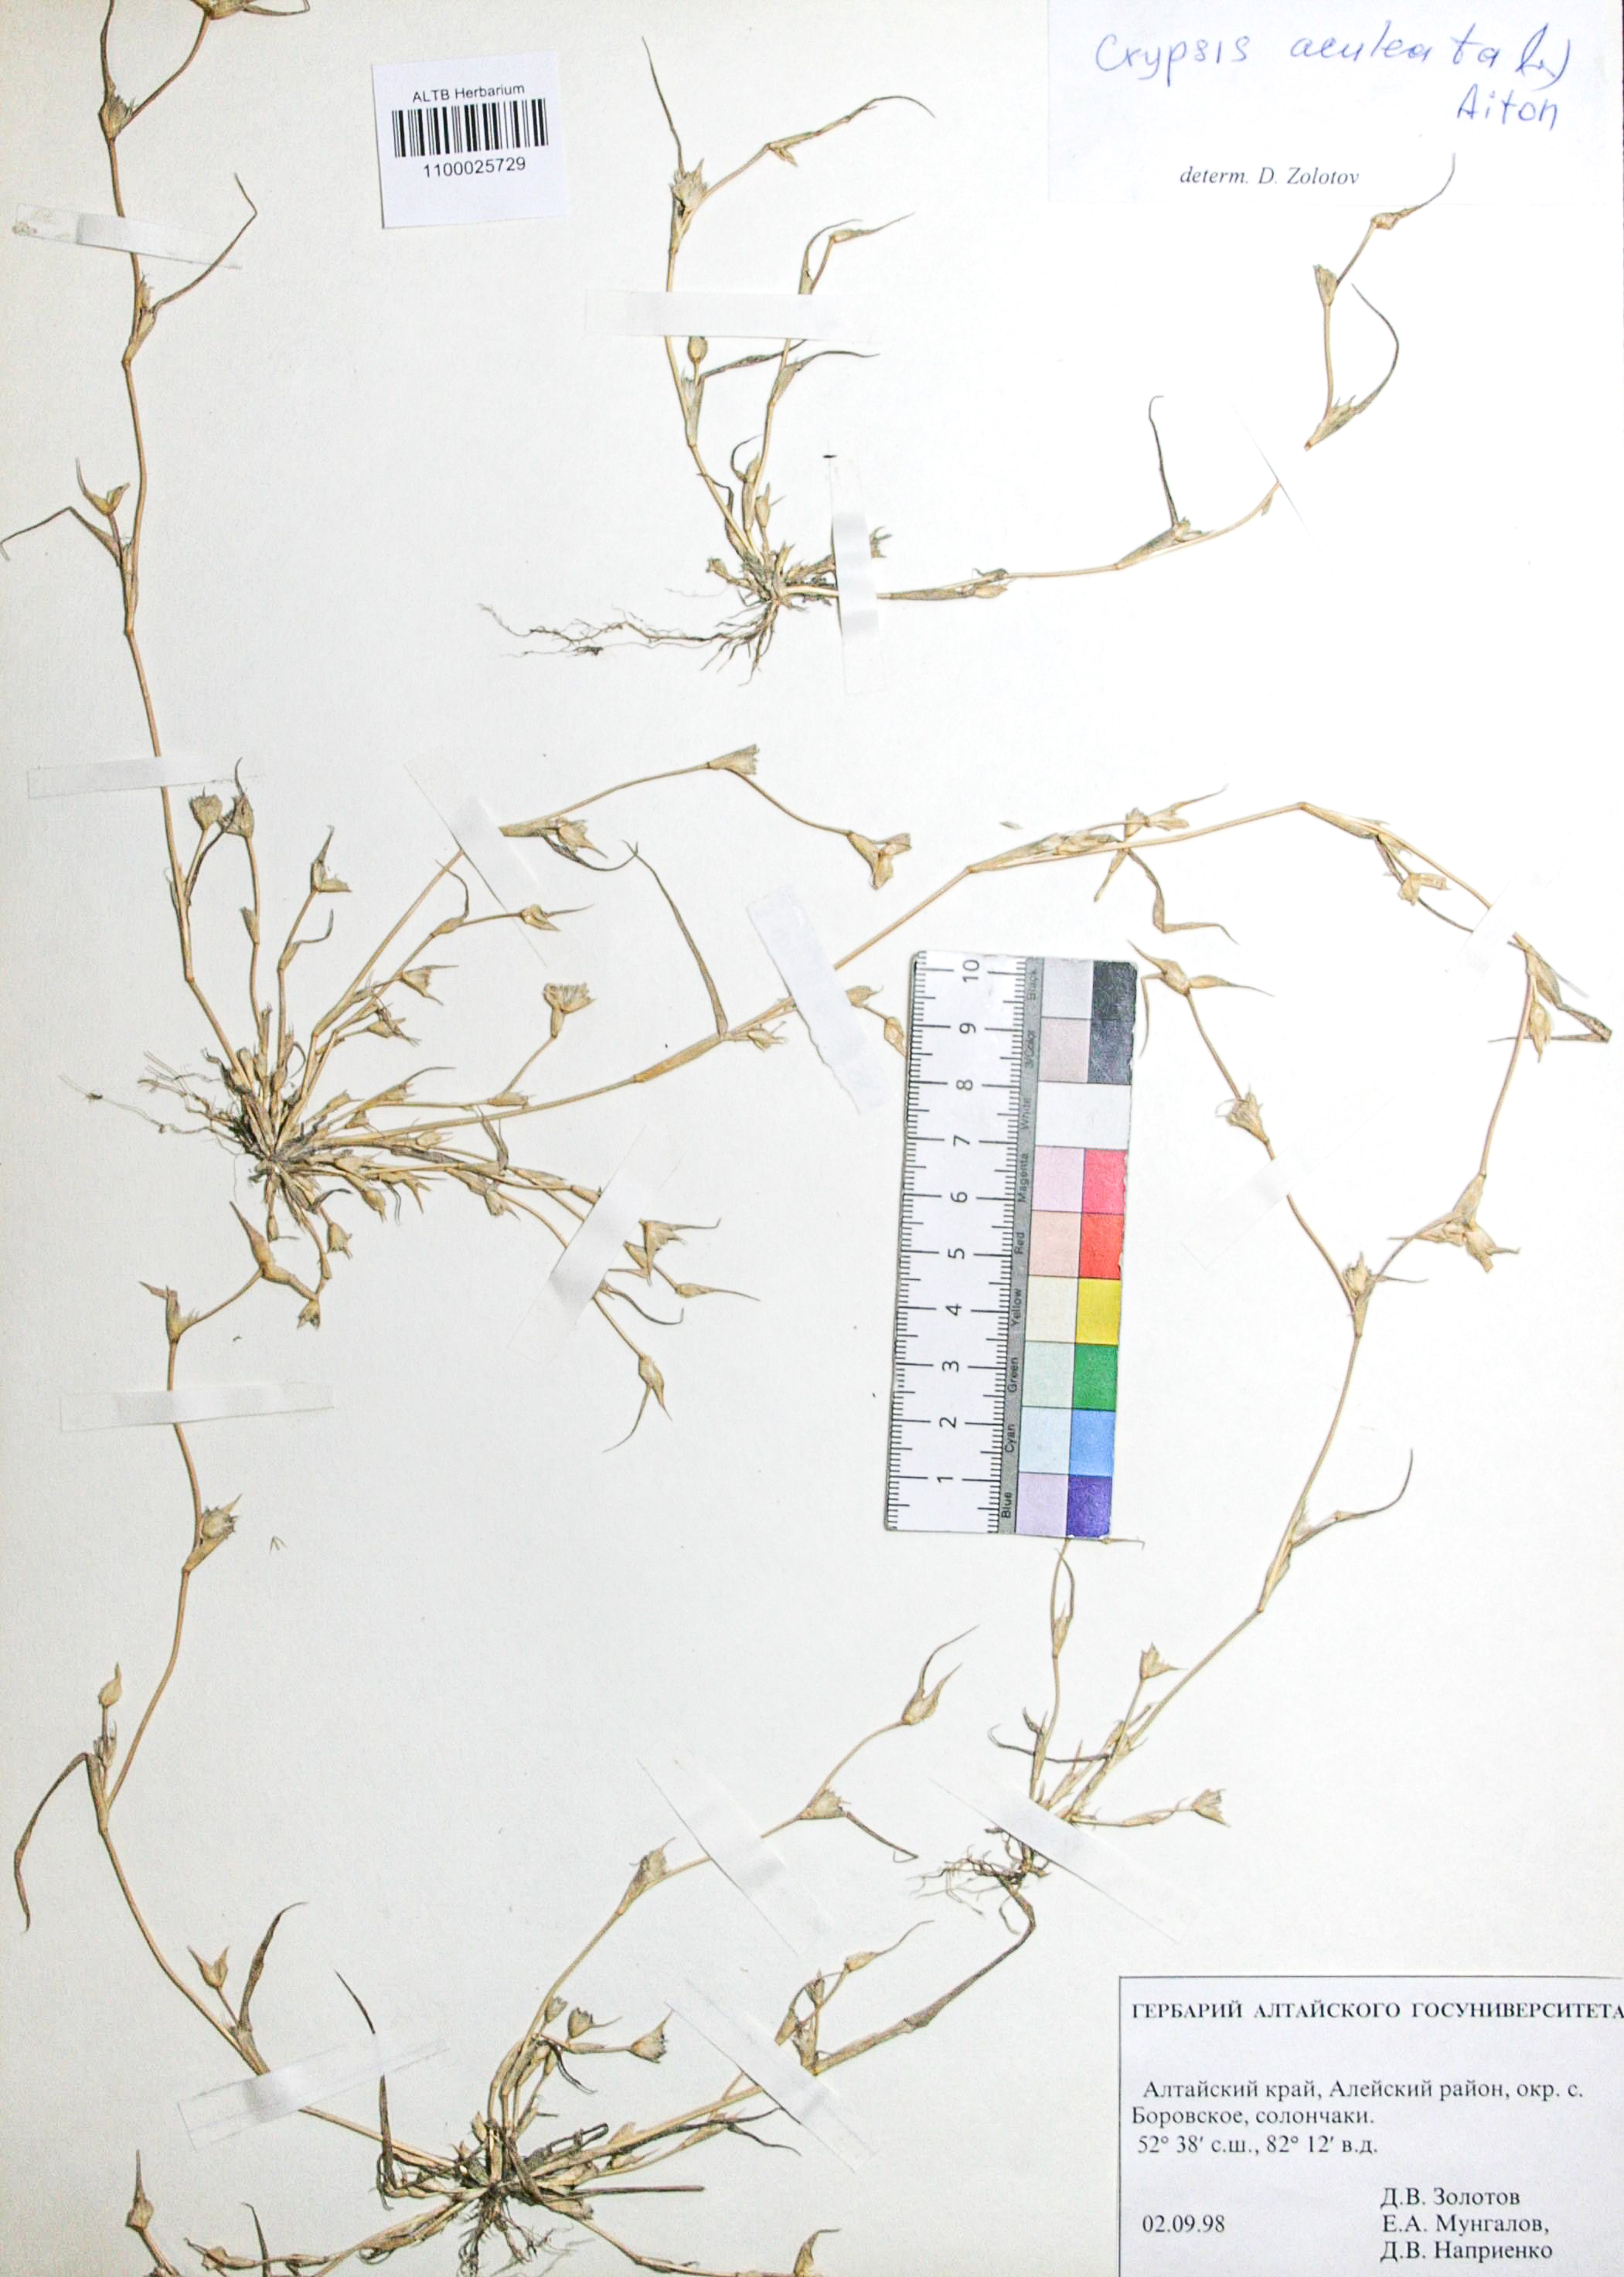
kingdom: Plantae
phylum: Tracheophyta
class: Liliopsida
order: Poales
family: Poaceae
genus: Sporobolus
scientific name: Sporobolus aculeatus
